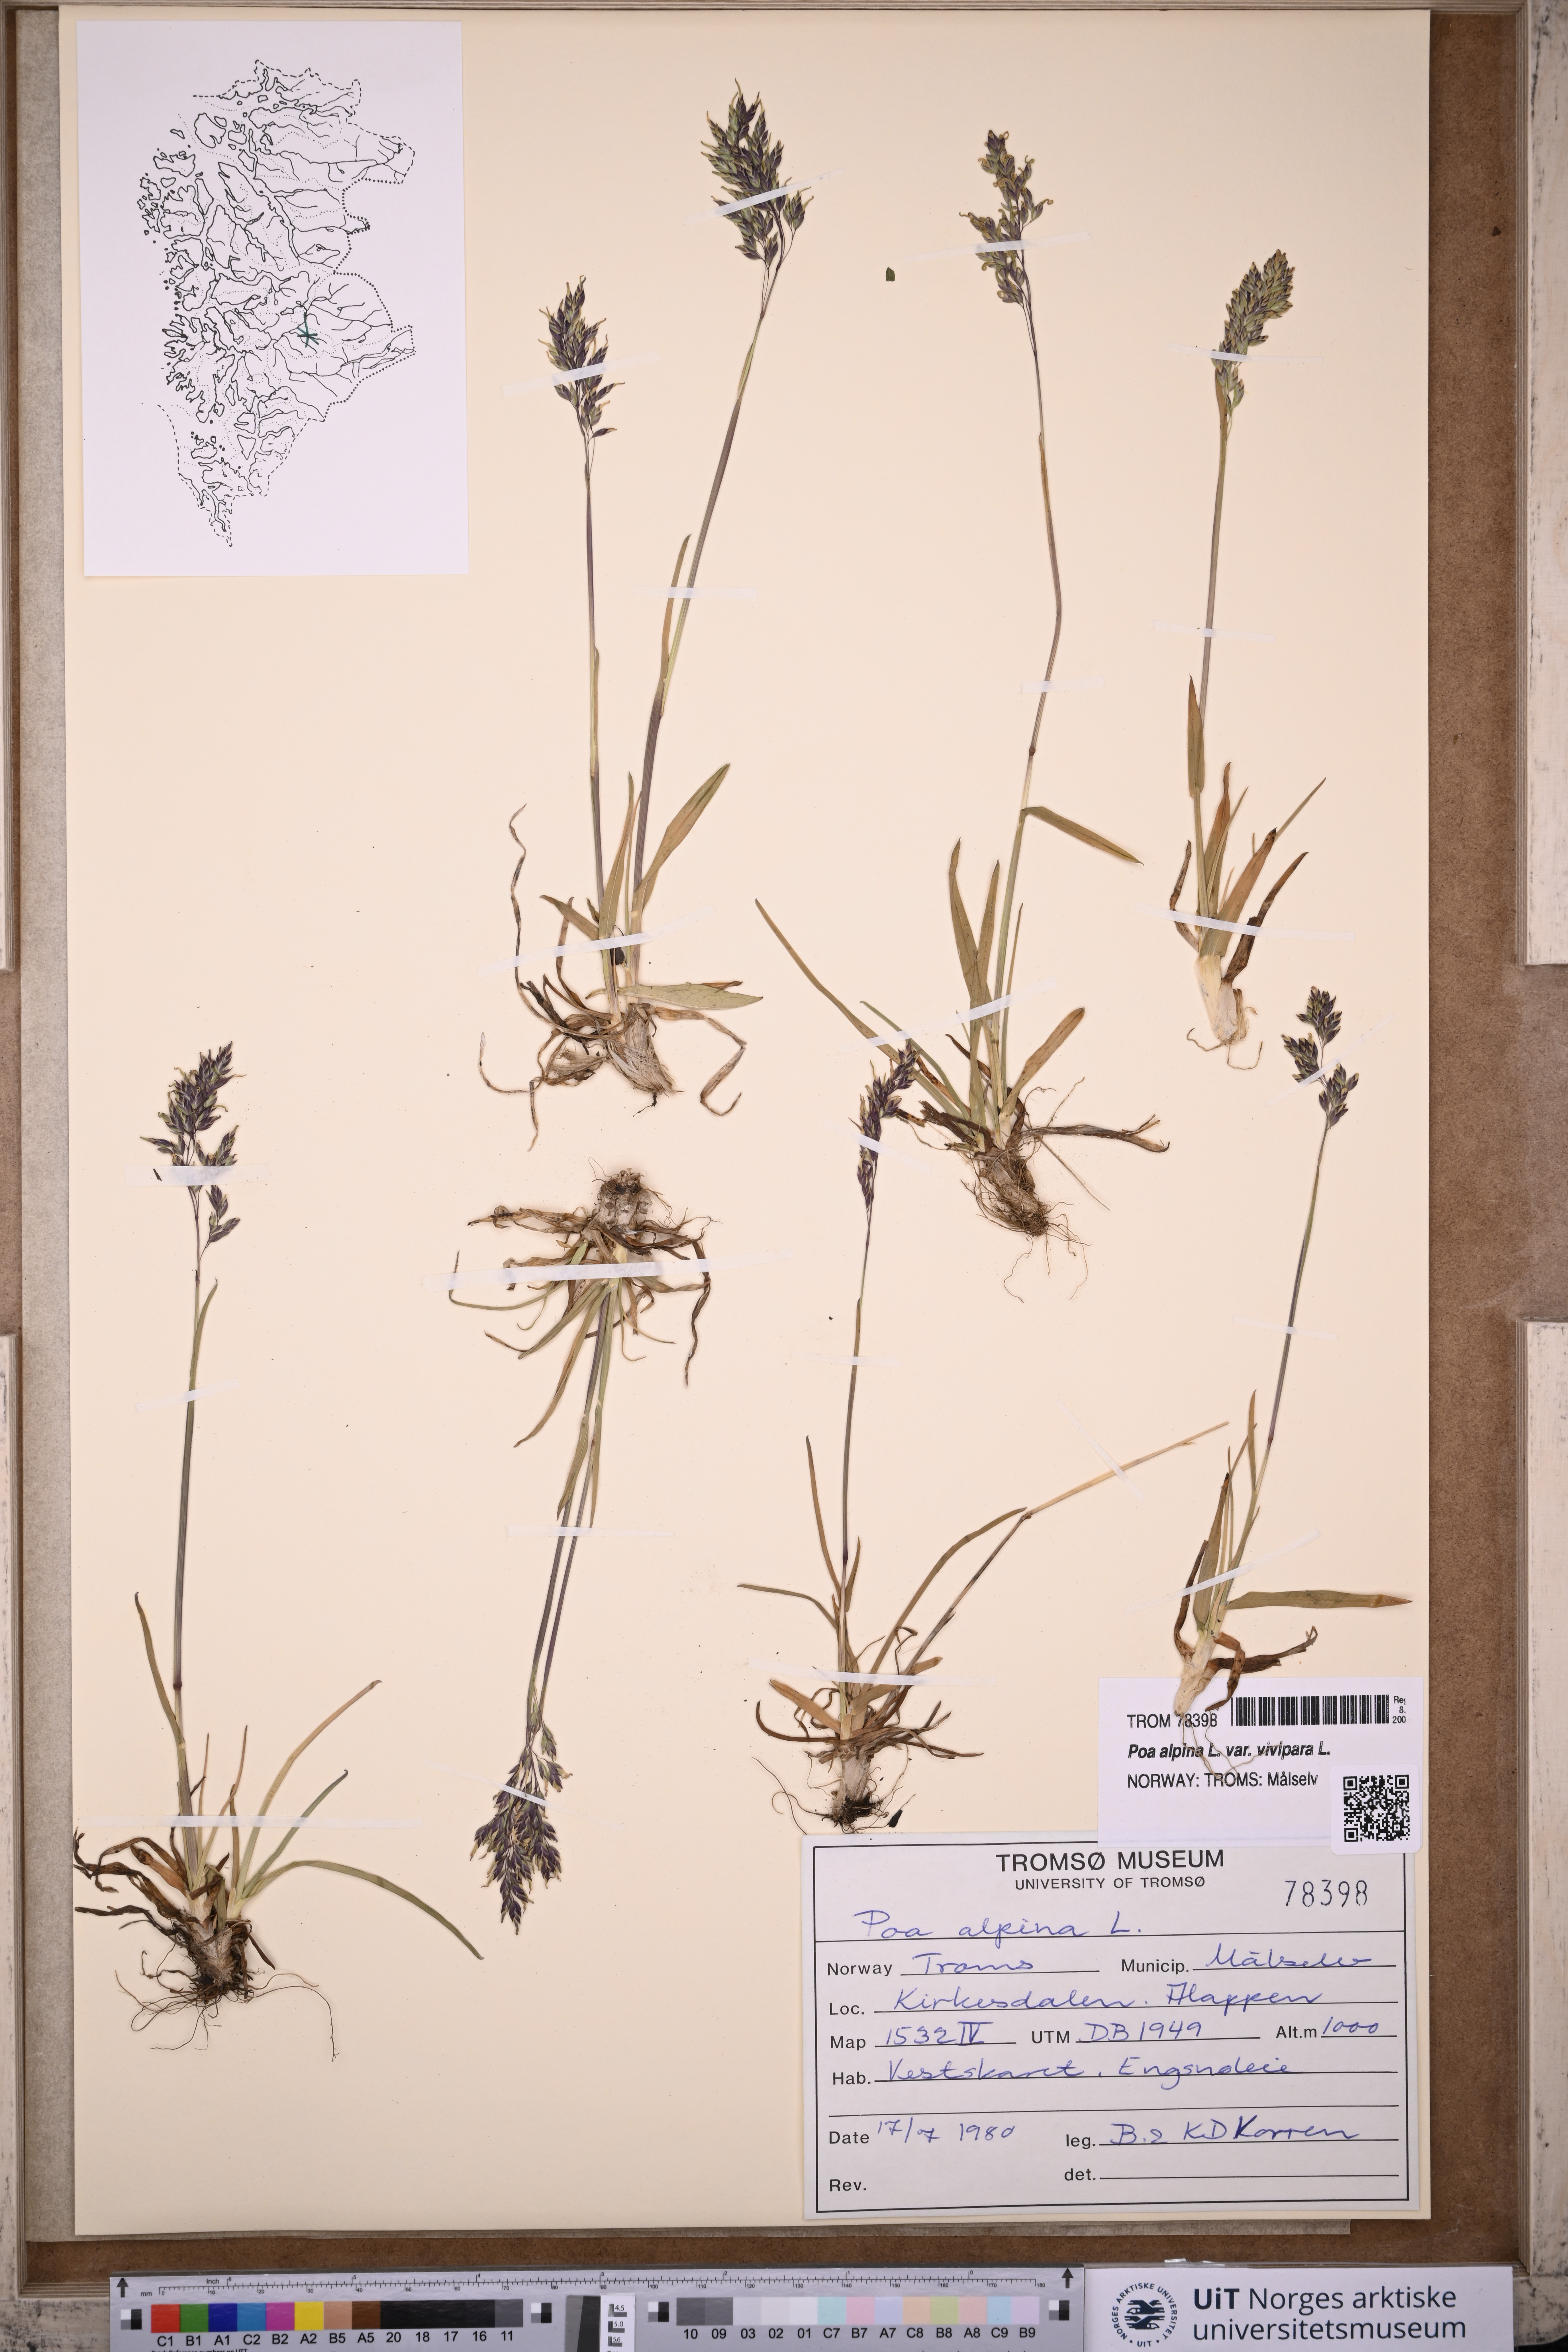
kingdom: Plantae
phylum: Tracheophyta
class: Liliopsida
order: Poales
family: Poaceae
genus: Poa
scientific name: Poa alpina
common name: Alpine bluegrass
